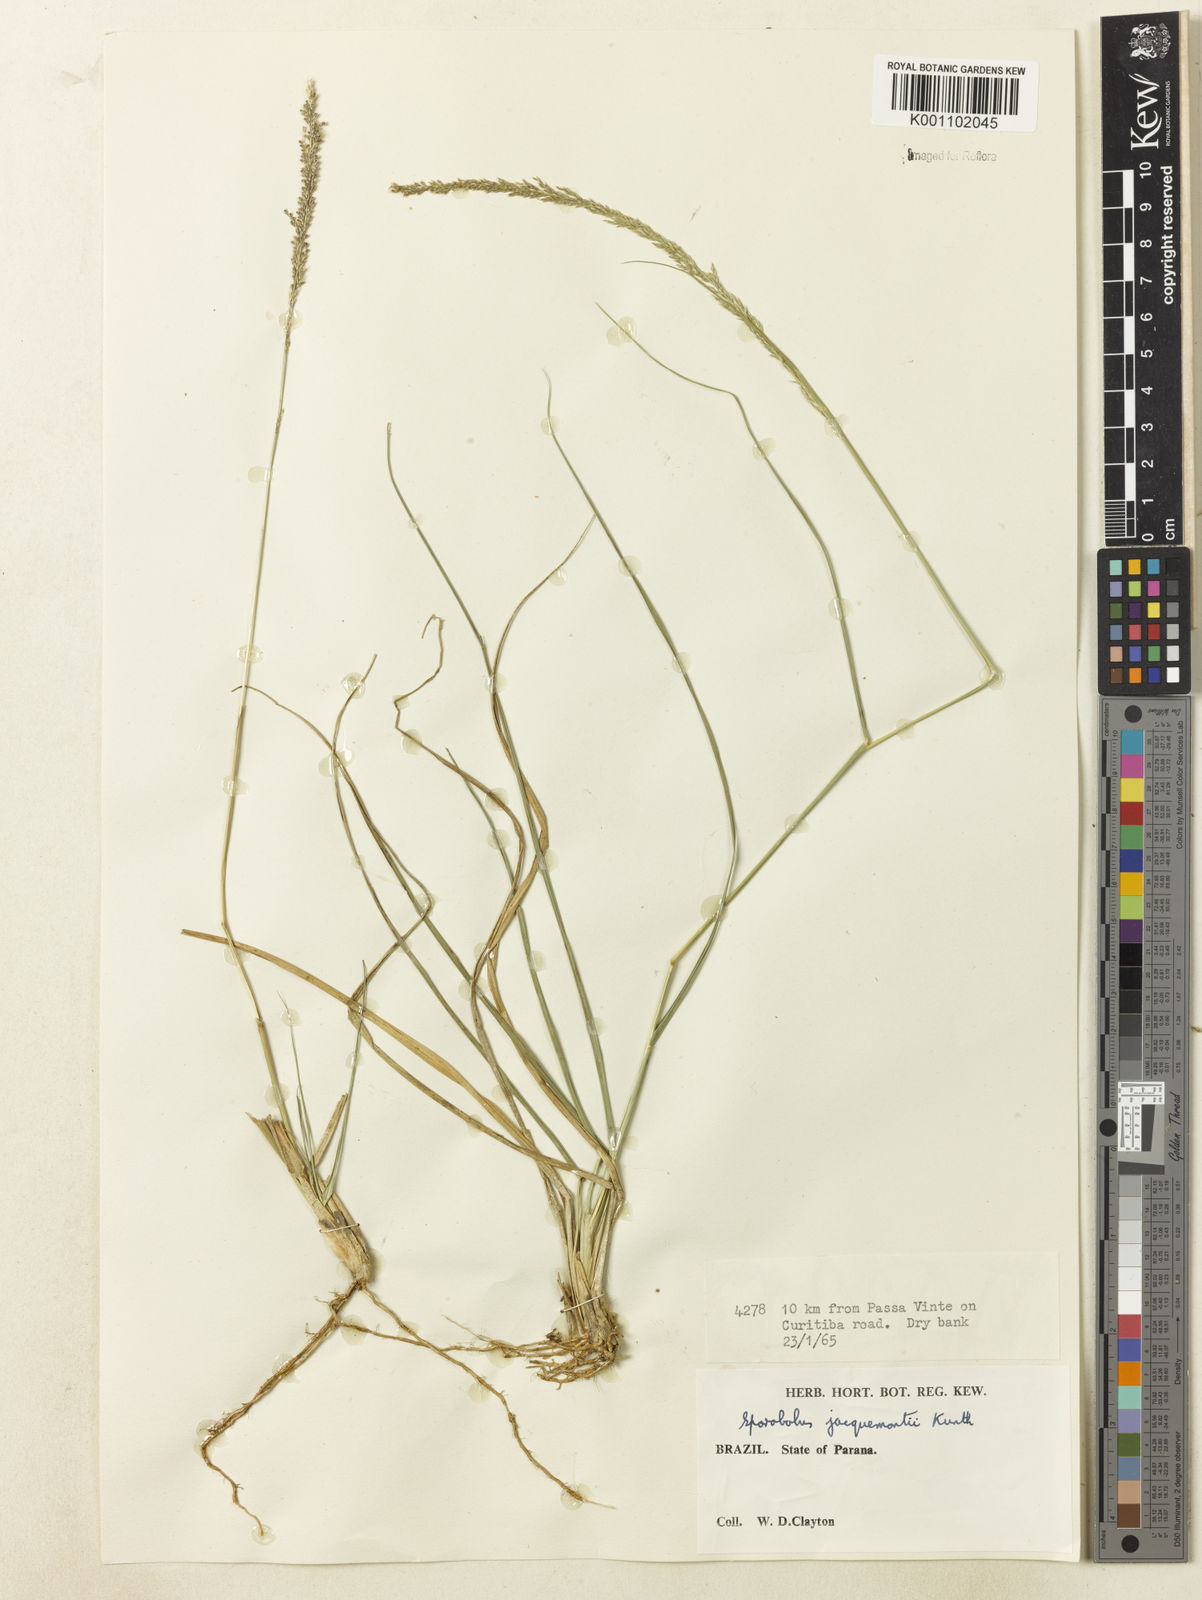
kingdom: Plantae
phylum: Tracheophyta
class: Liliopsida
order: Poales
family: Poaceae
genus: Sporobolus
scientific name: Sporobolus pyramidalis
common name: West indian dropseed
